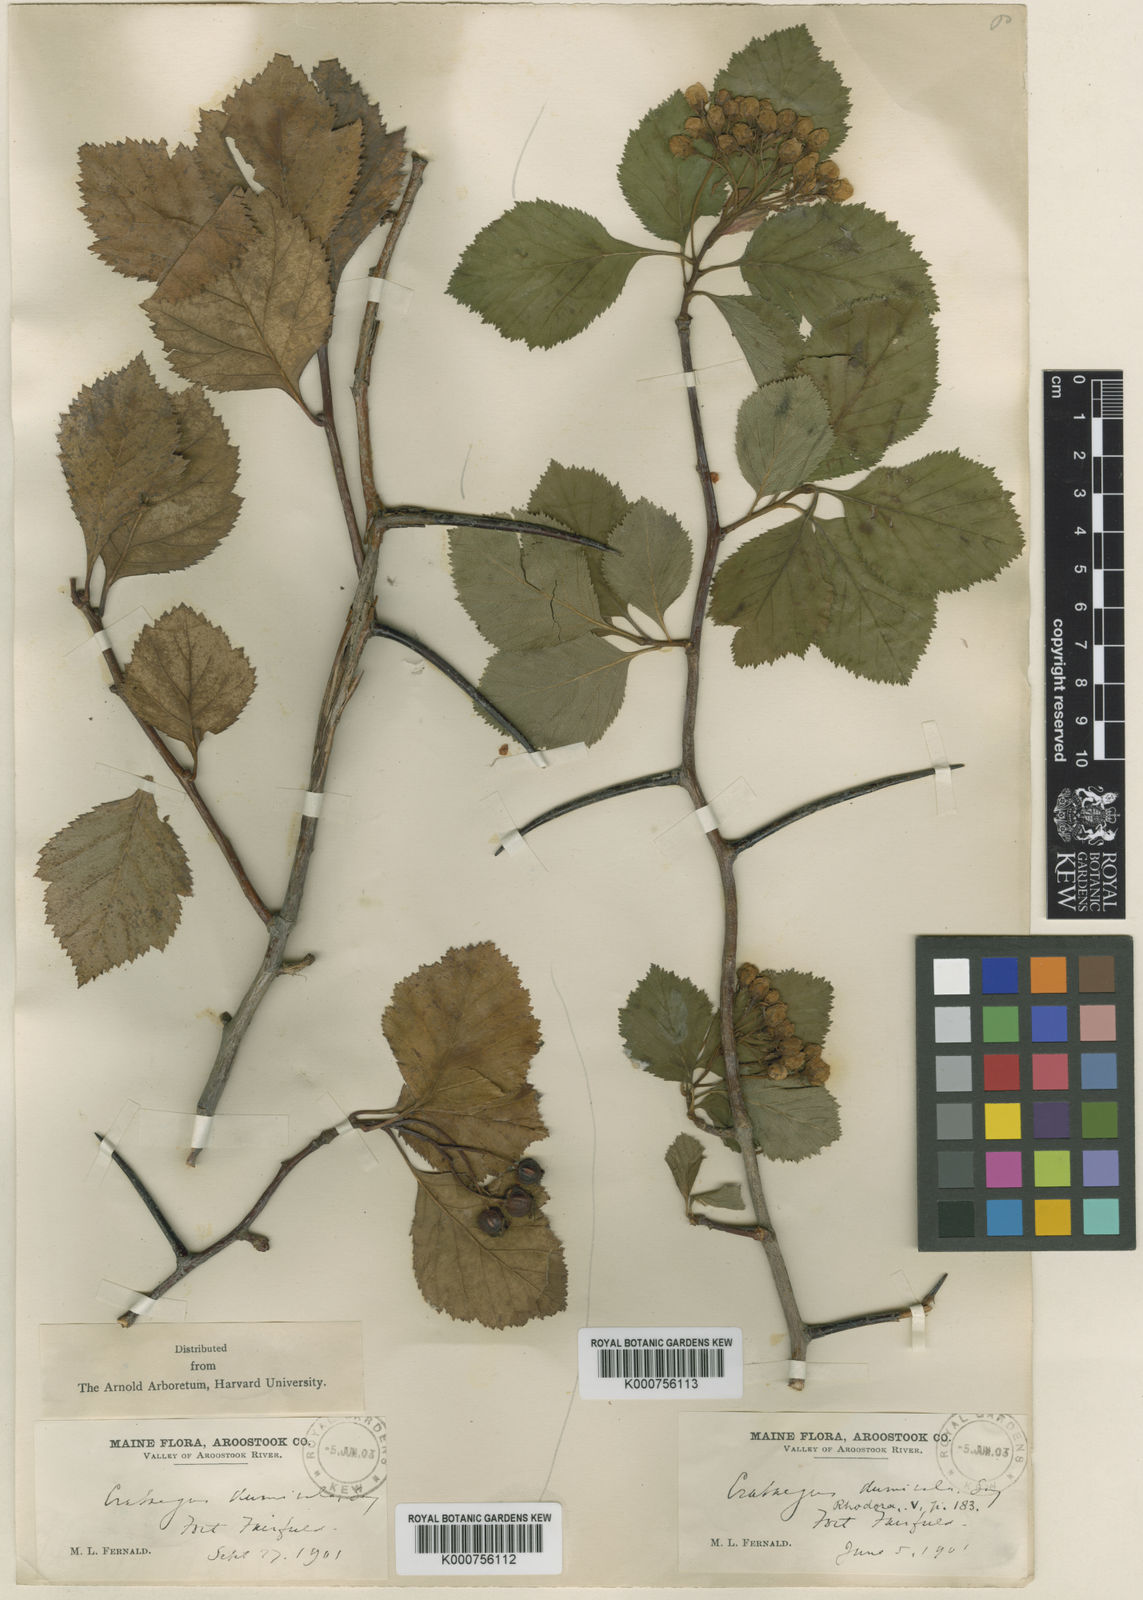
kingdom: Plantae
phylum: Tracheophyta
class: Magnoliopsida
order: Rosales
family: Rosaceae
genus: Crataegus
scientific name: Crataegus dumicola
